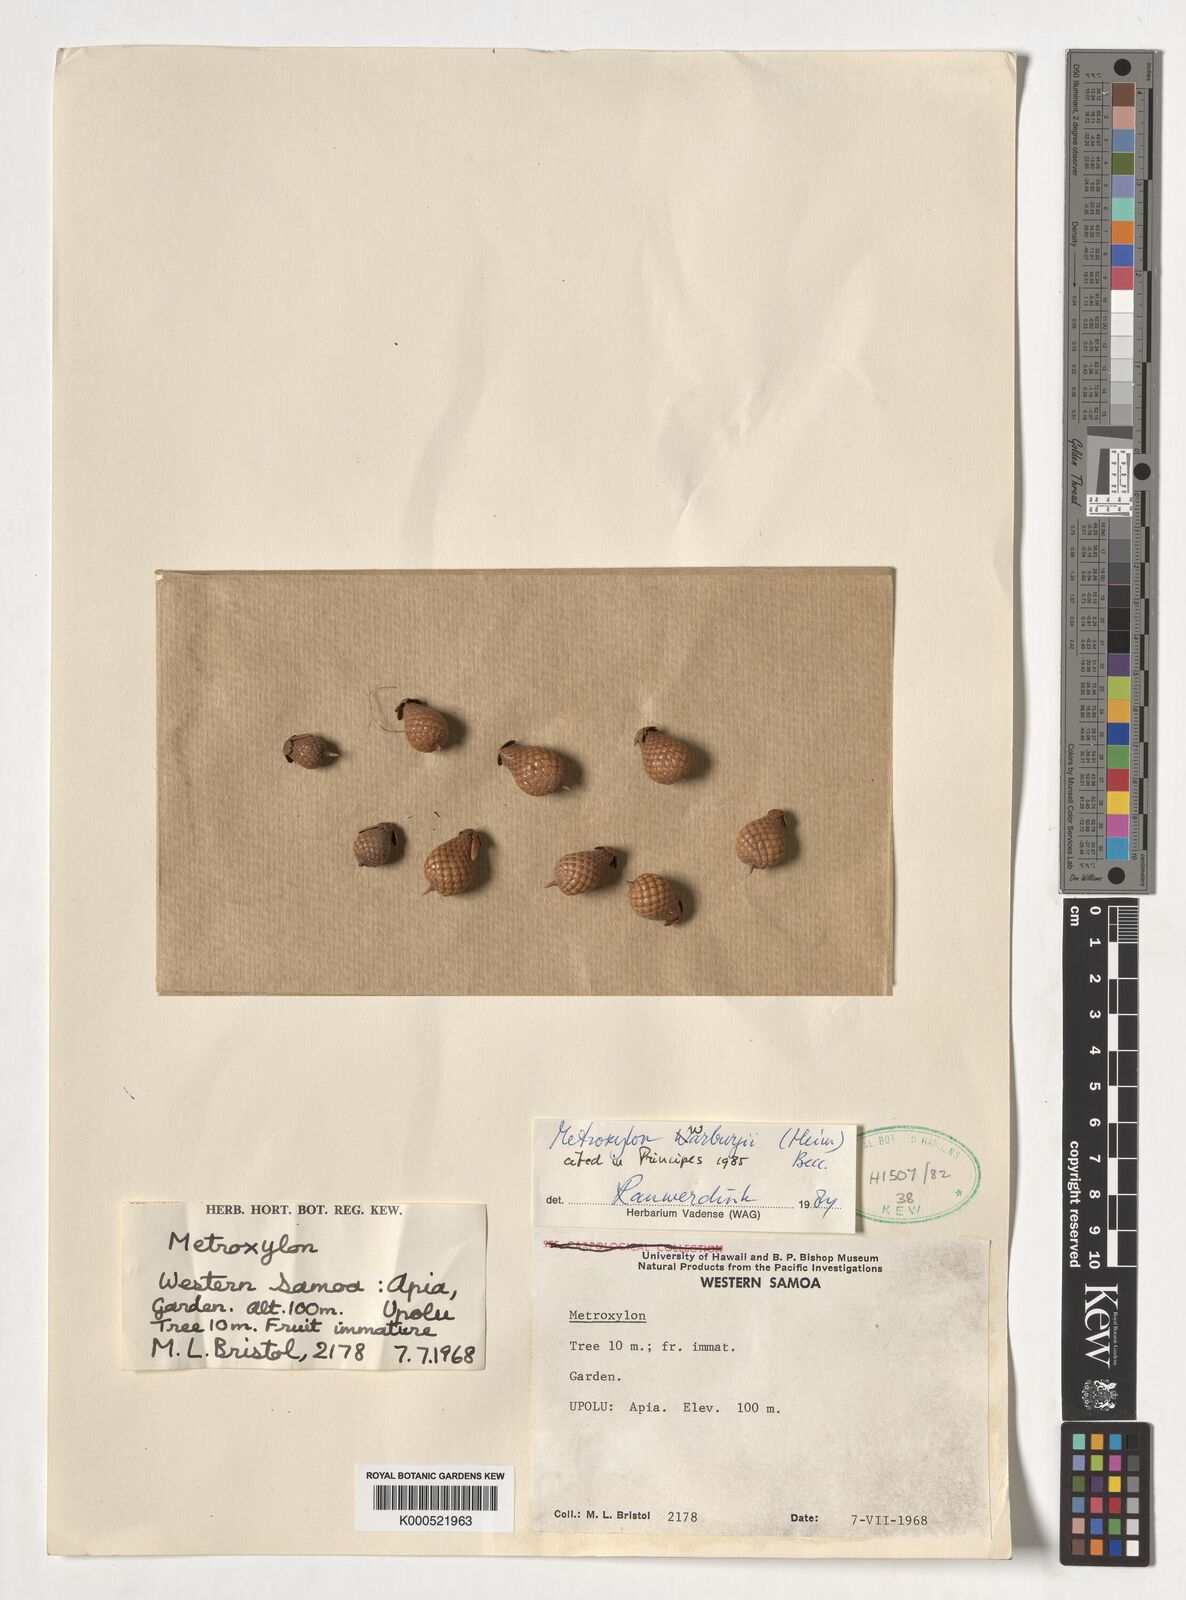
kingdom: Plantae
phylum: Tracheophyta
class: Liliopsida
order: Arecales
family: Arecaceae
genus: Metroxylon
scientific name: Metroxylon warburgii
